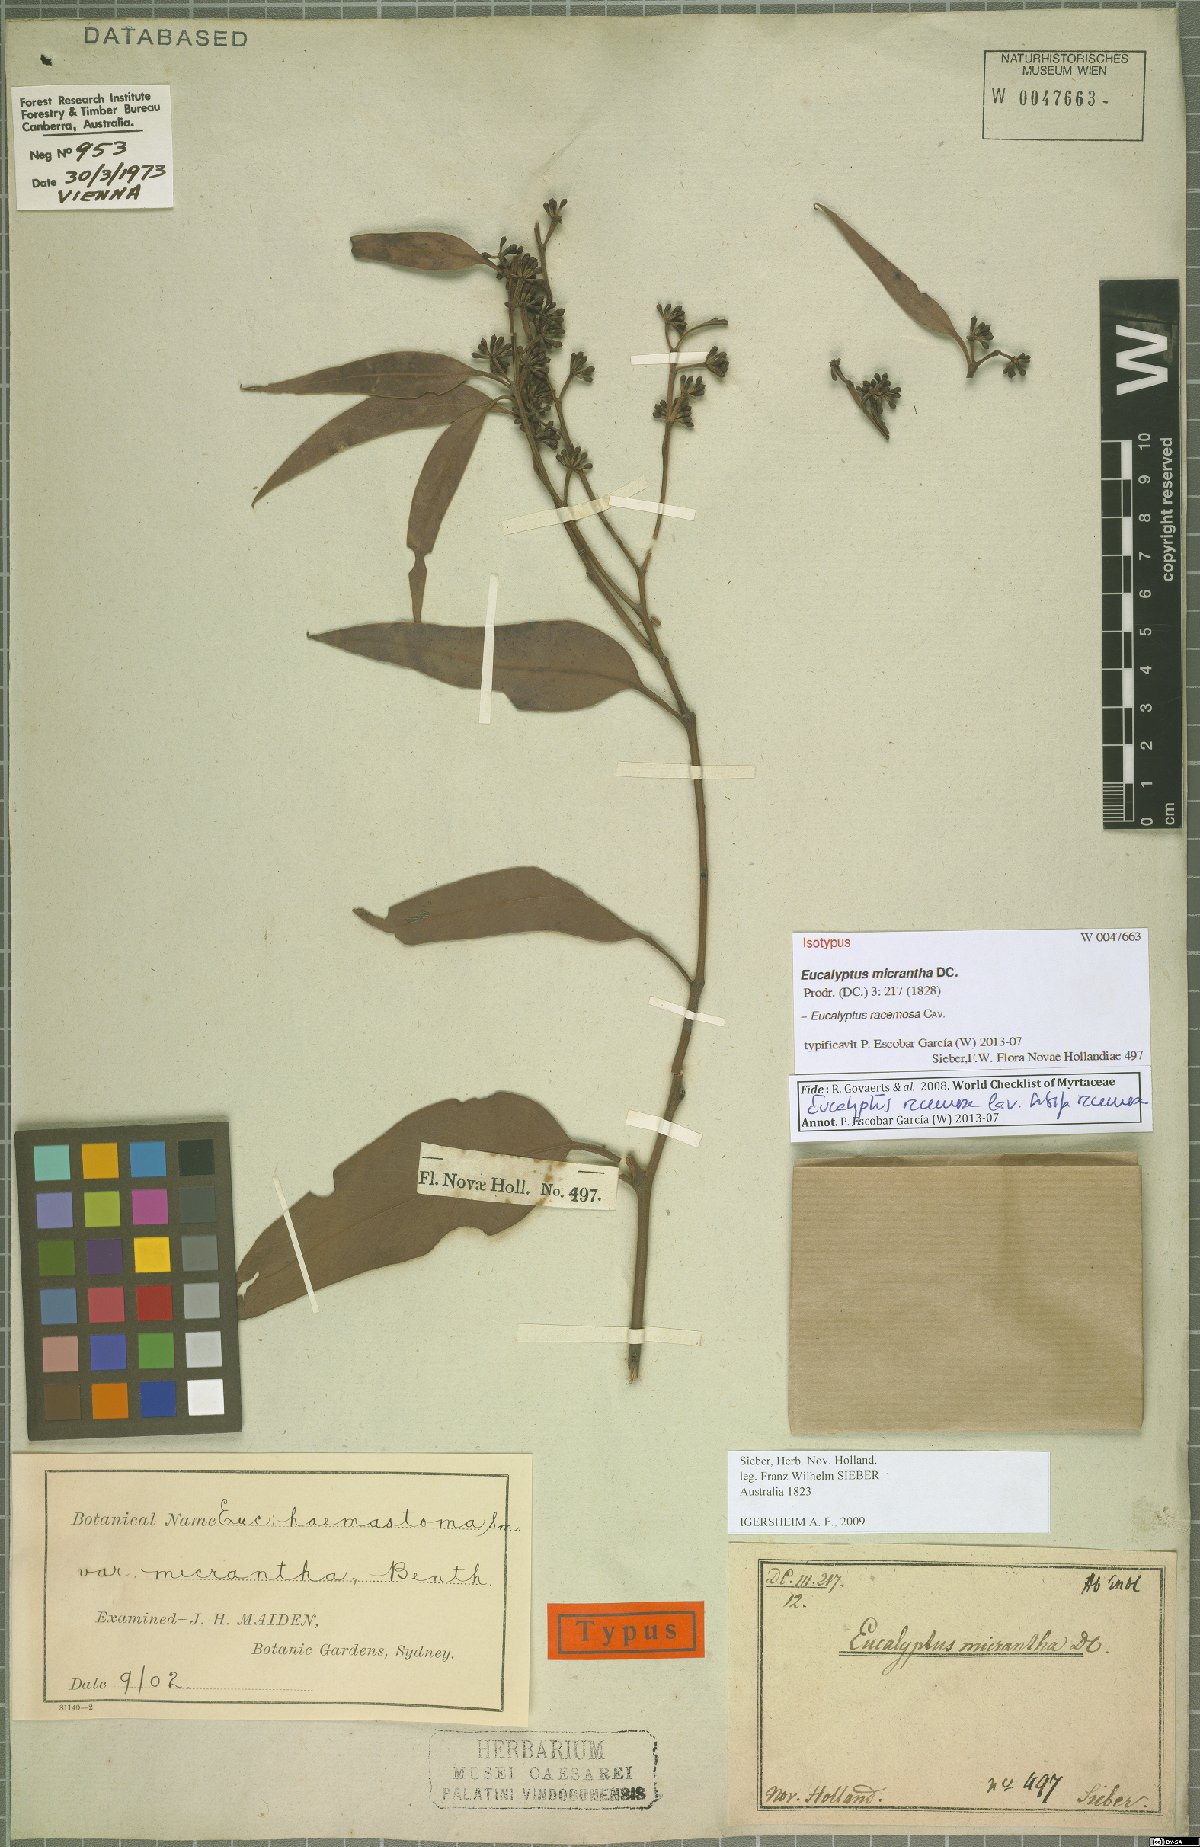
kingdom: Plantae
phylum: Tracheophyta
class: Magnoliopsida
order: Myrtales
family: Myrtaceae
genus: Eucalyptus
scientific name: Eucalyptus racemosa
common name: Scribbly gum
